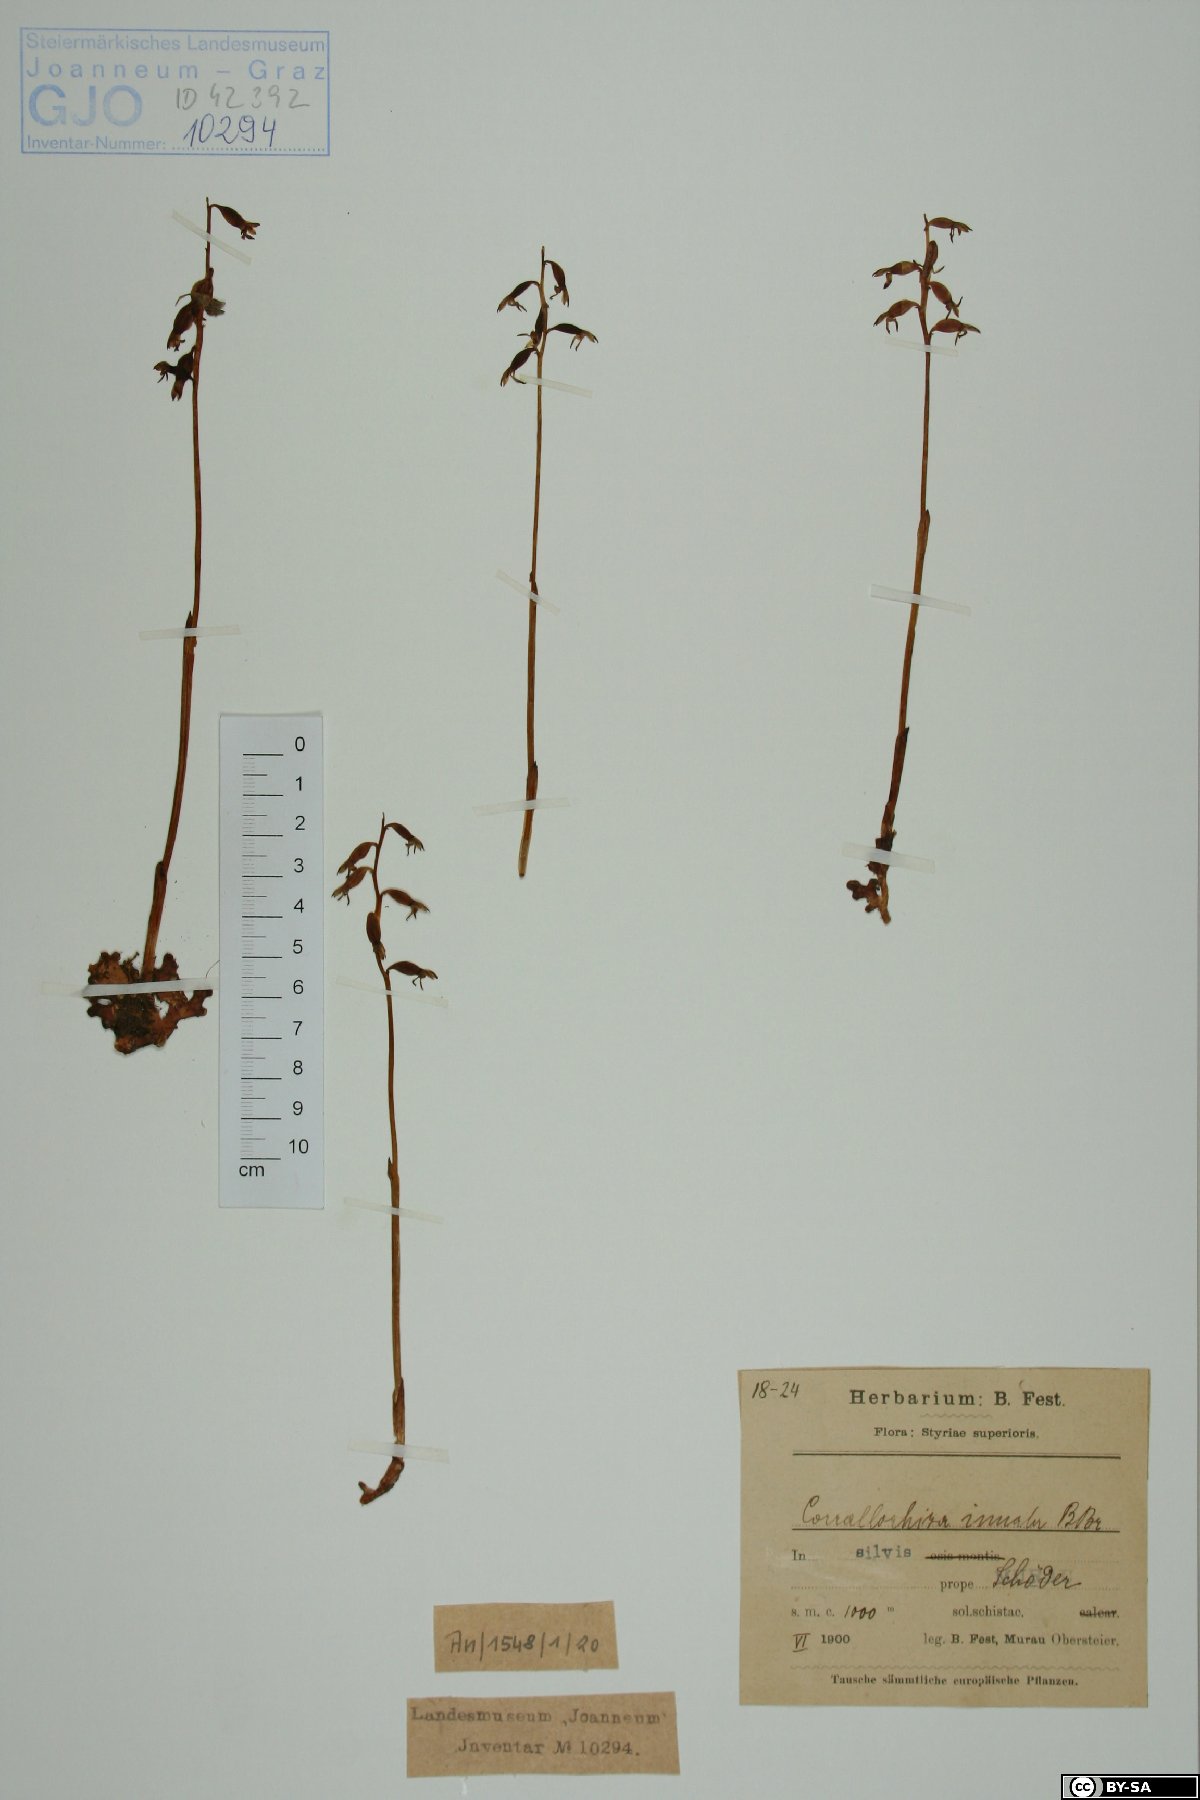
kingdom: Plantae
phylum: Tracheophyta
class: Liliopsida
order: Asparagales
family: Orchidaceae
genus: Corallorhiza
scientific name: Corallorhiza trifida
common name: Yellow coralroot
